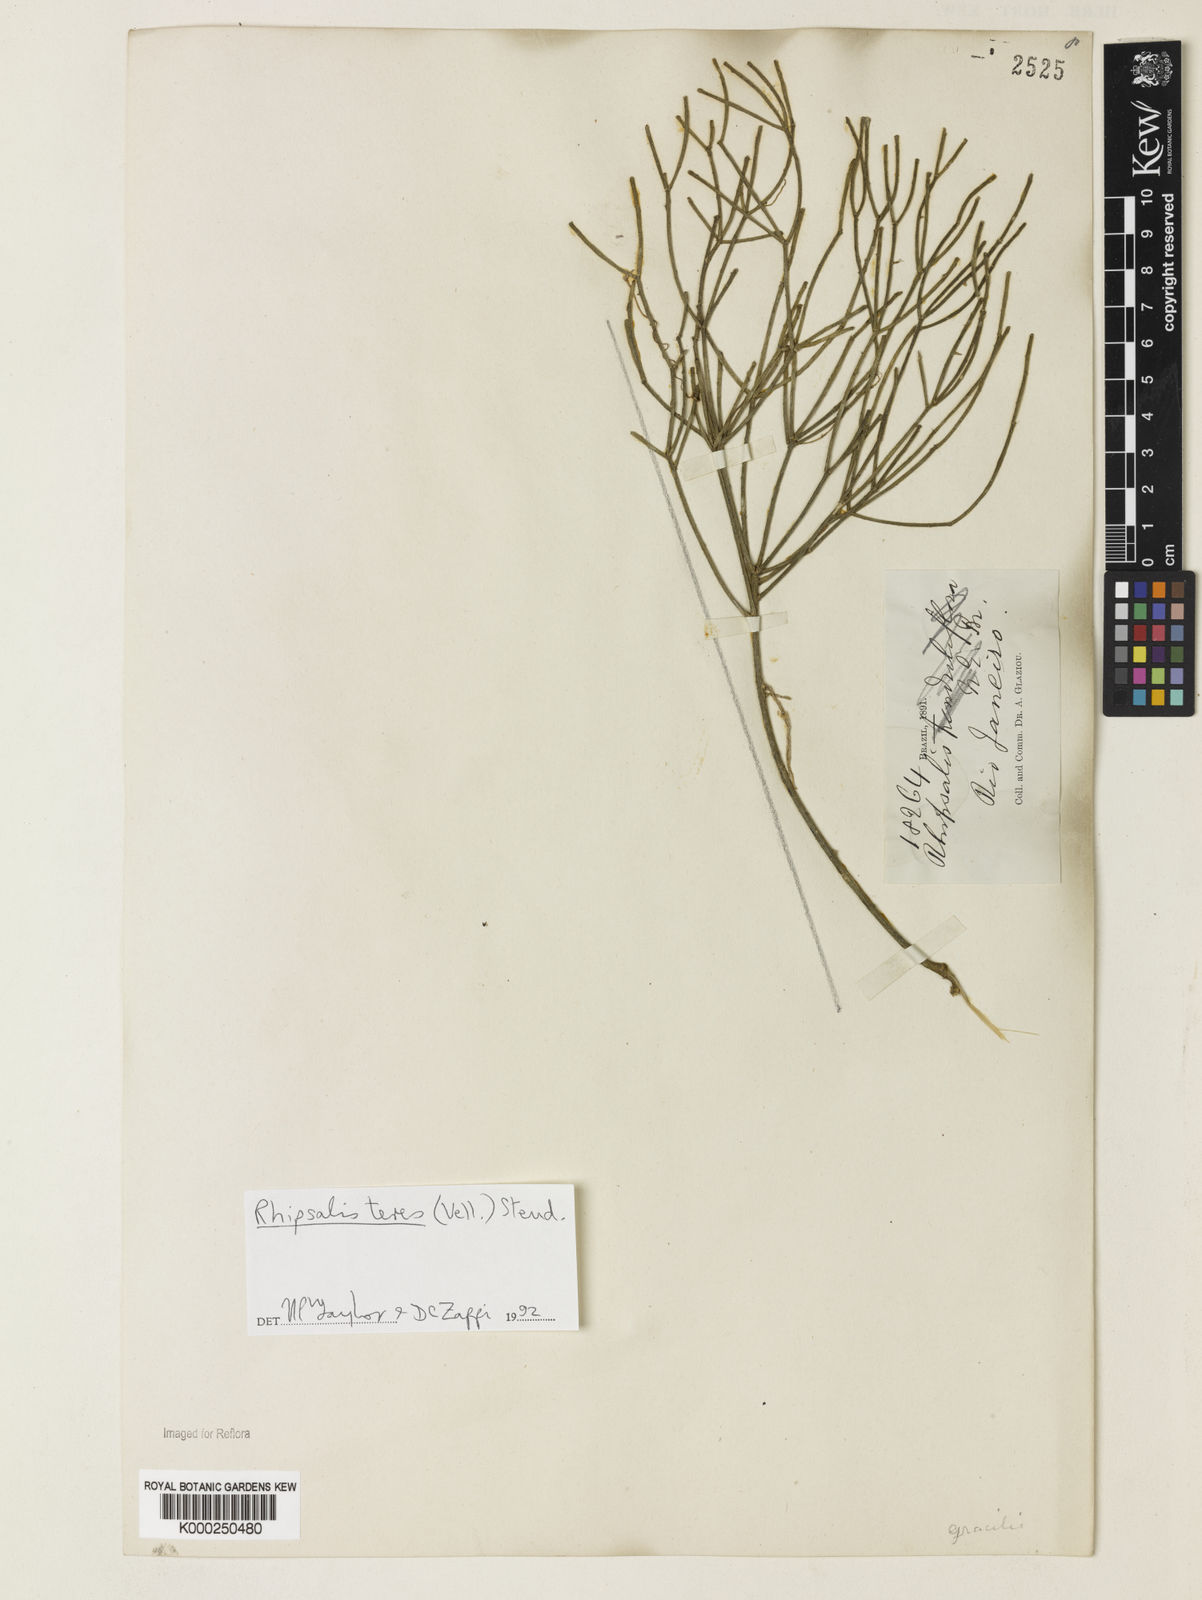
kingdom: Plantae
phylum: Tracheophyta
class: Magnoliopsida
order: Caryophyllales
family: Cactaceae
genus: Rhipsalis
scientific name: Rhipsalis teres
